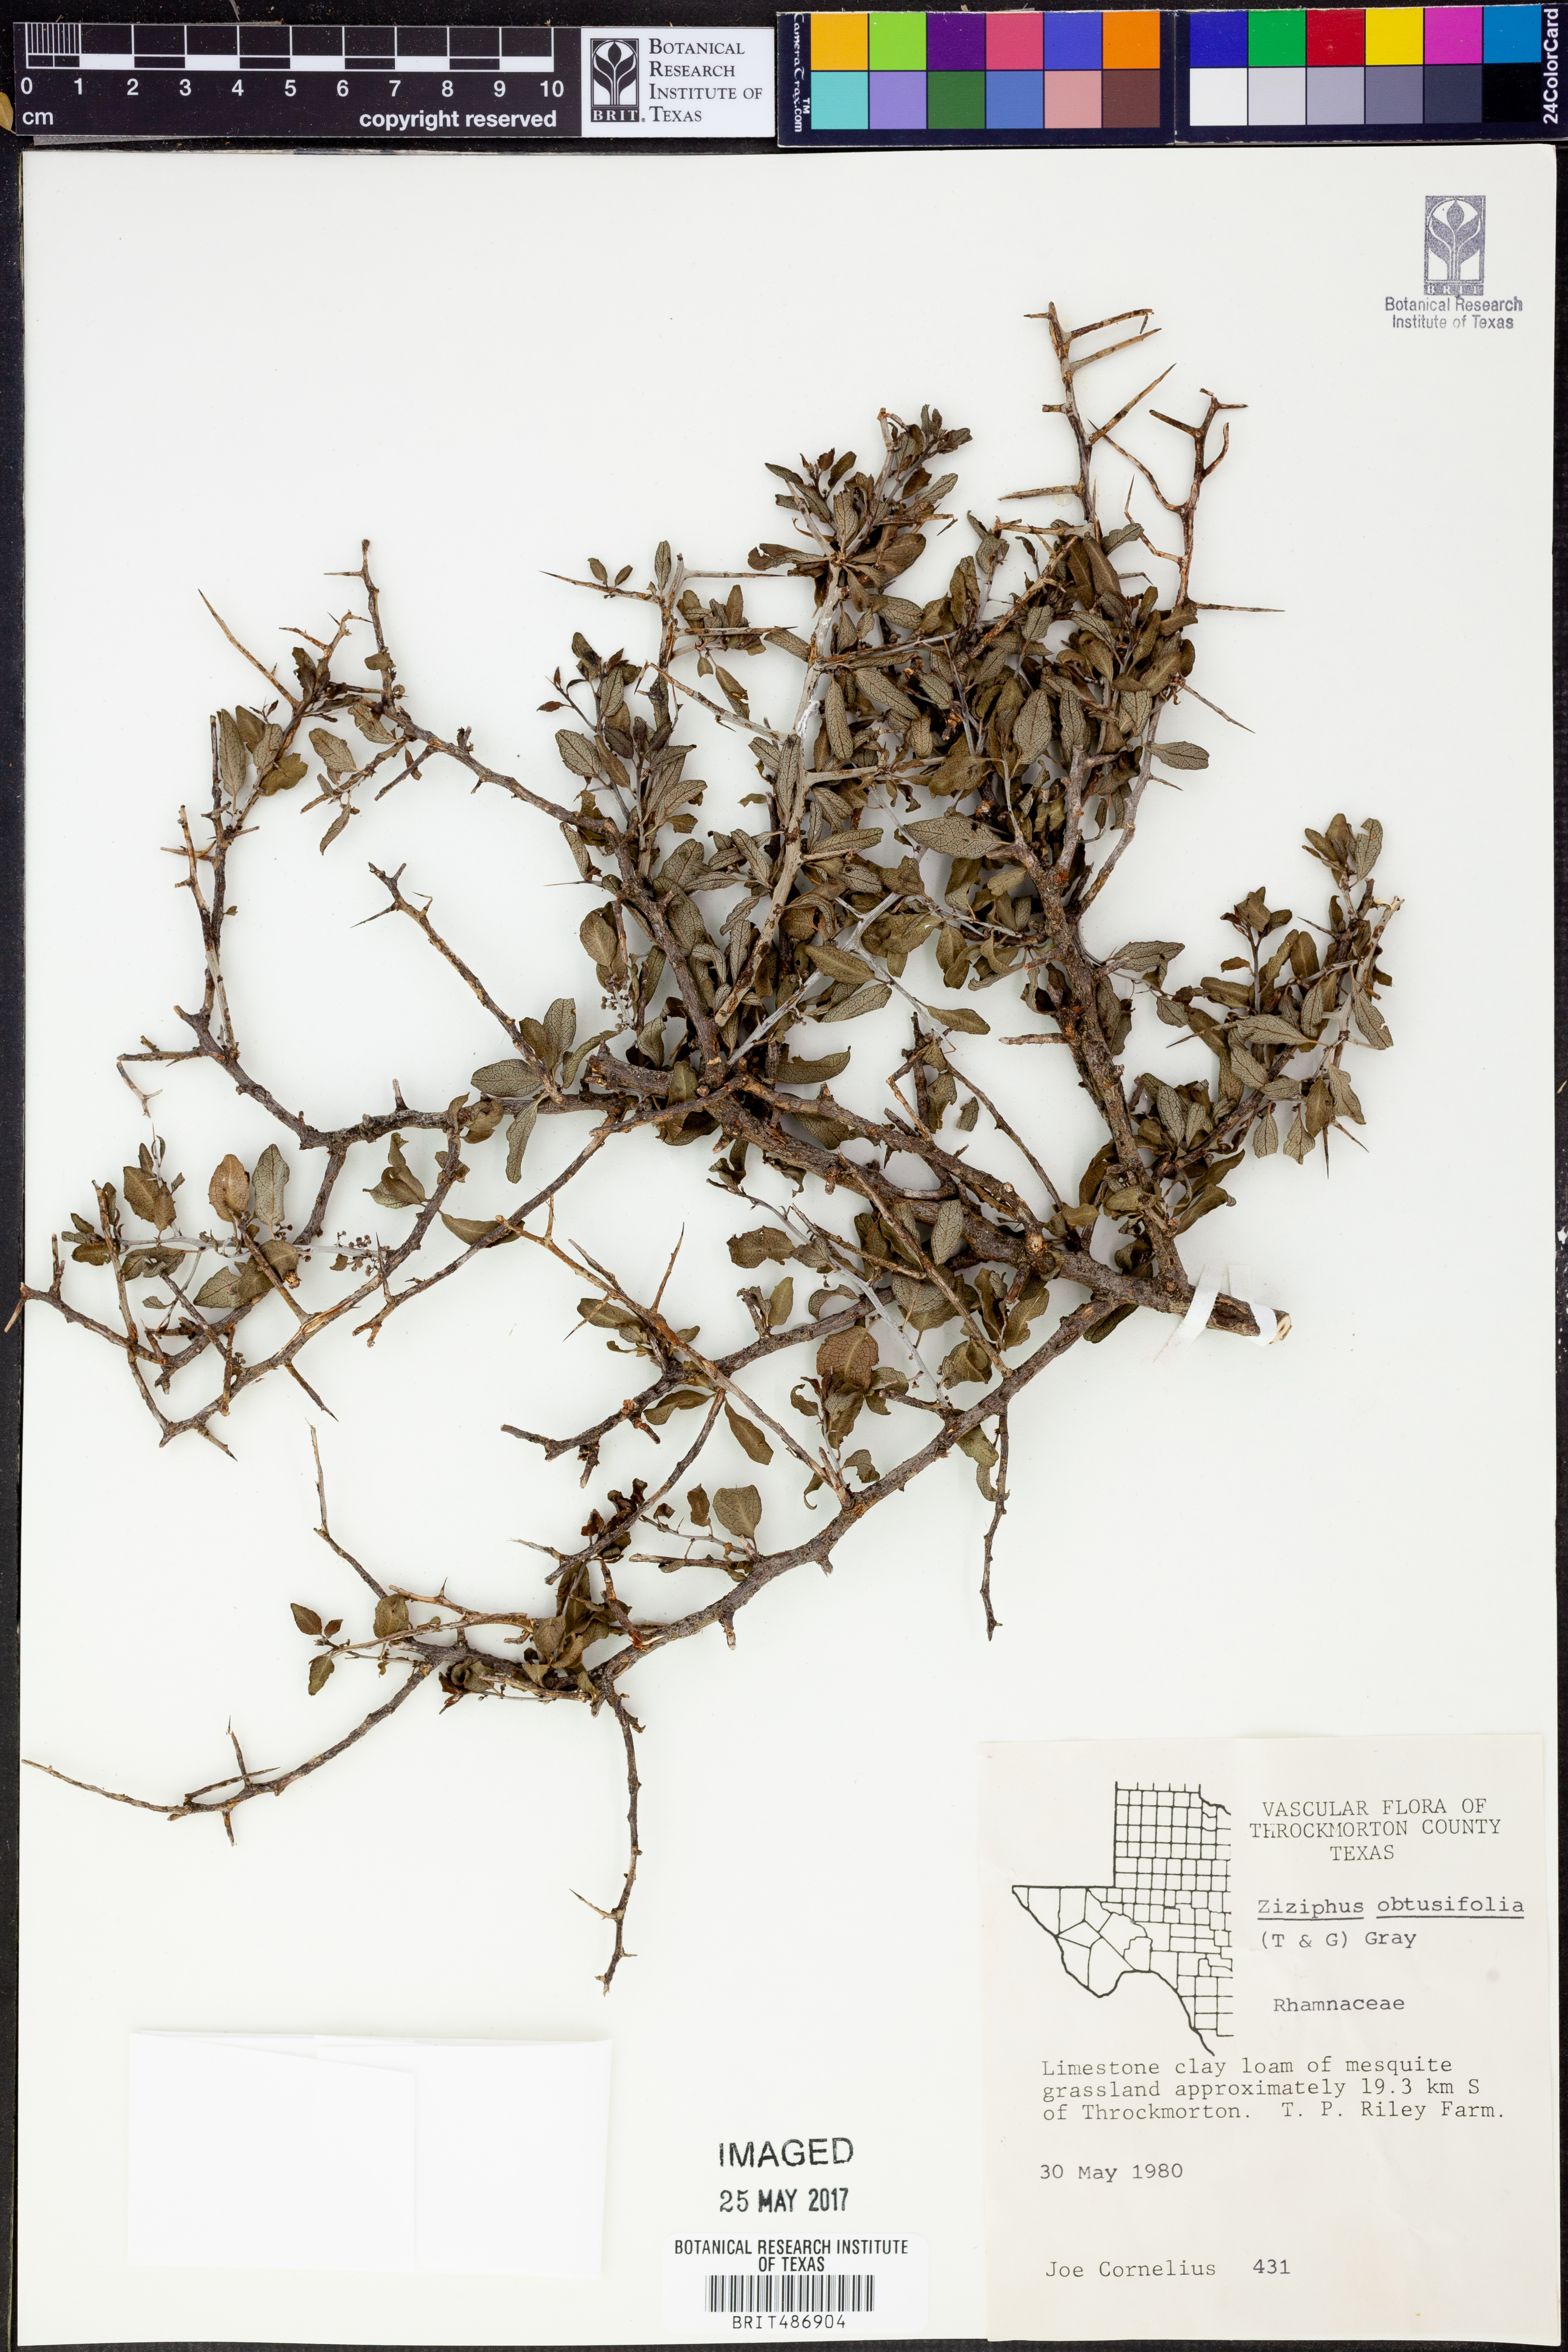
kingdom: Plantae
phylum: Tracheophyta
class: Magnoliopsida
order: Rosales
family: Rhamnaceae
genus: Sarcomphalus
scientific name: Sarcomphalus obtusifolius
